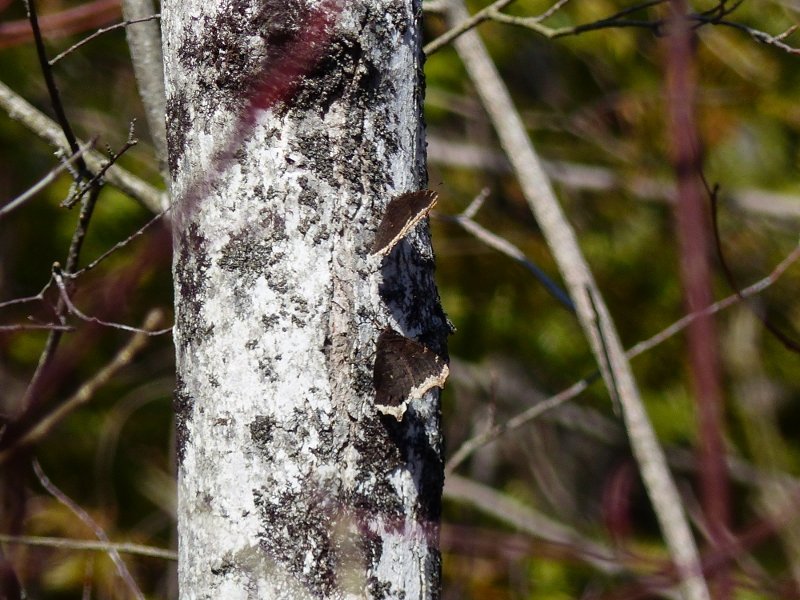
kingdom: Animalia
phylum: Arthropoda
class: Insecta
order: Lepidoptera
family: Nymphalidae
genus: Nymphalis
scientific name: Nymphalis antiopa
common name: Mourning Cloak
